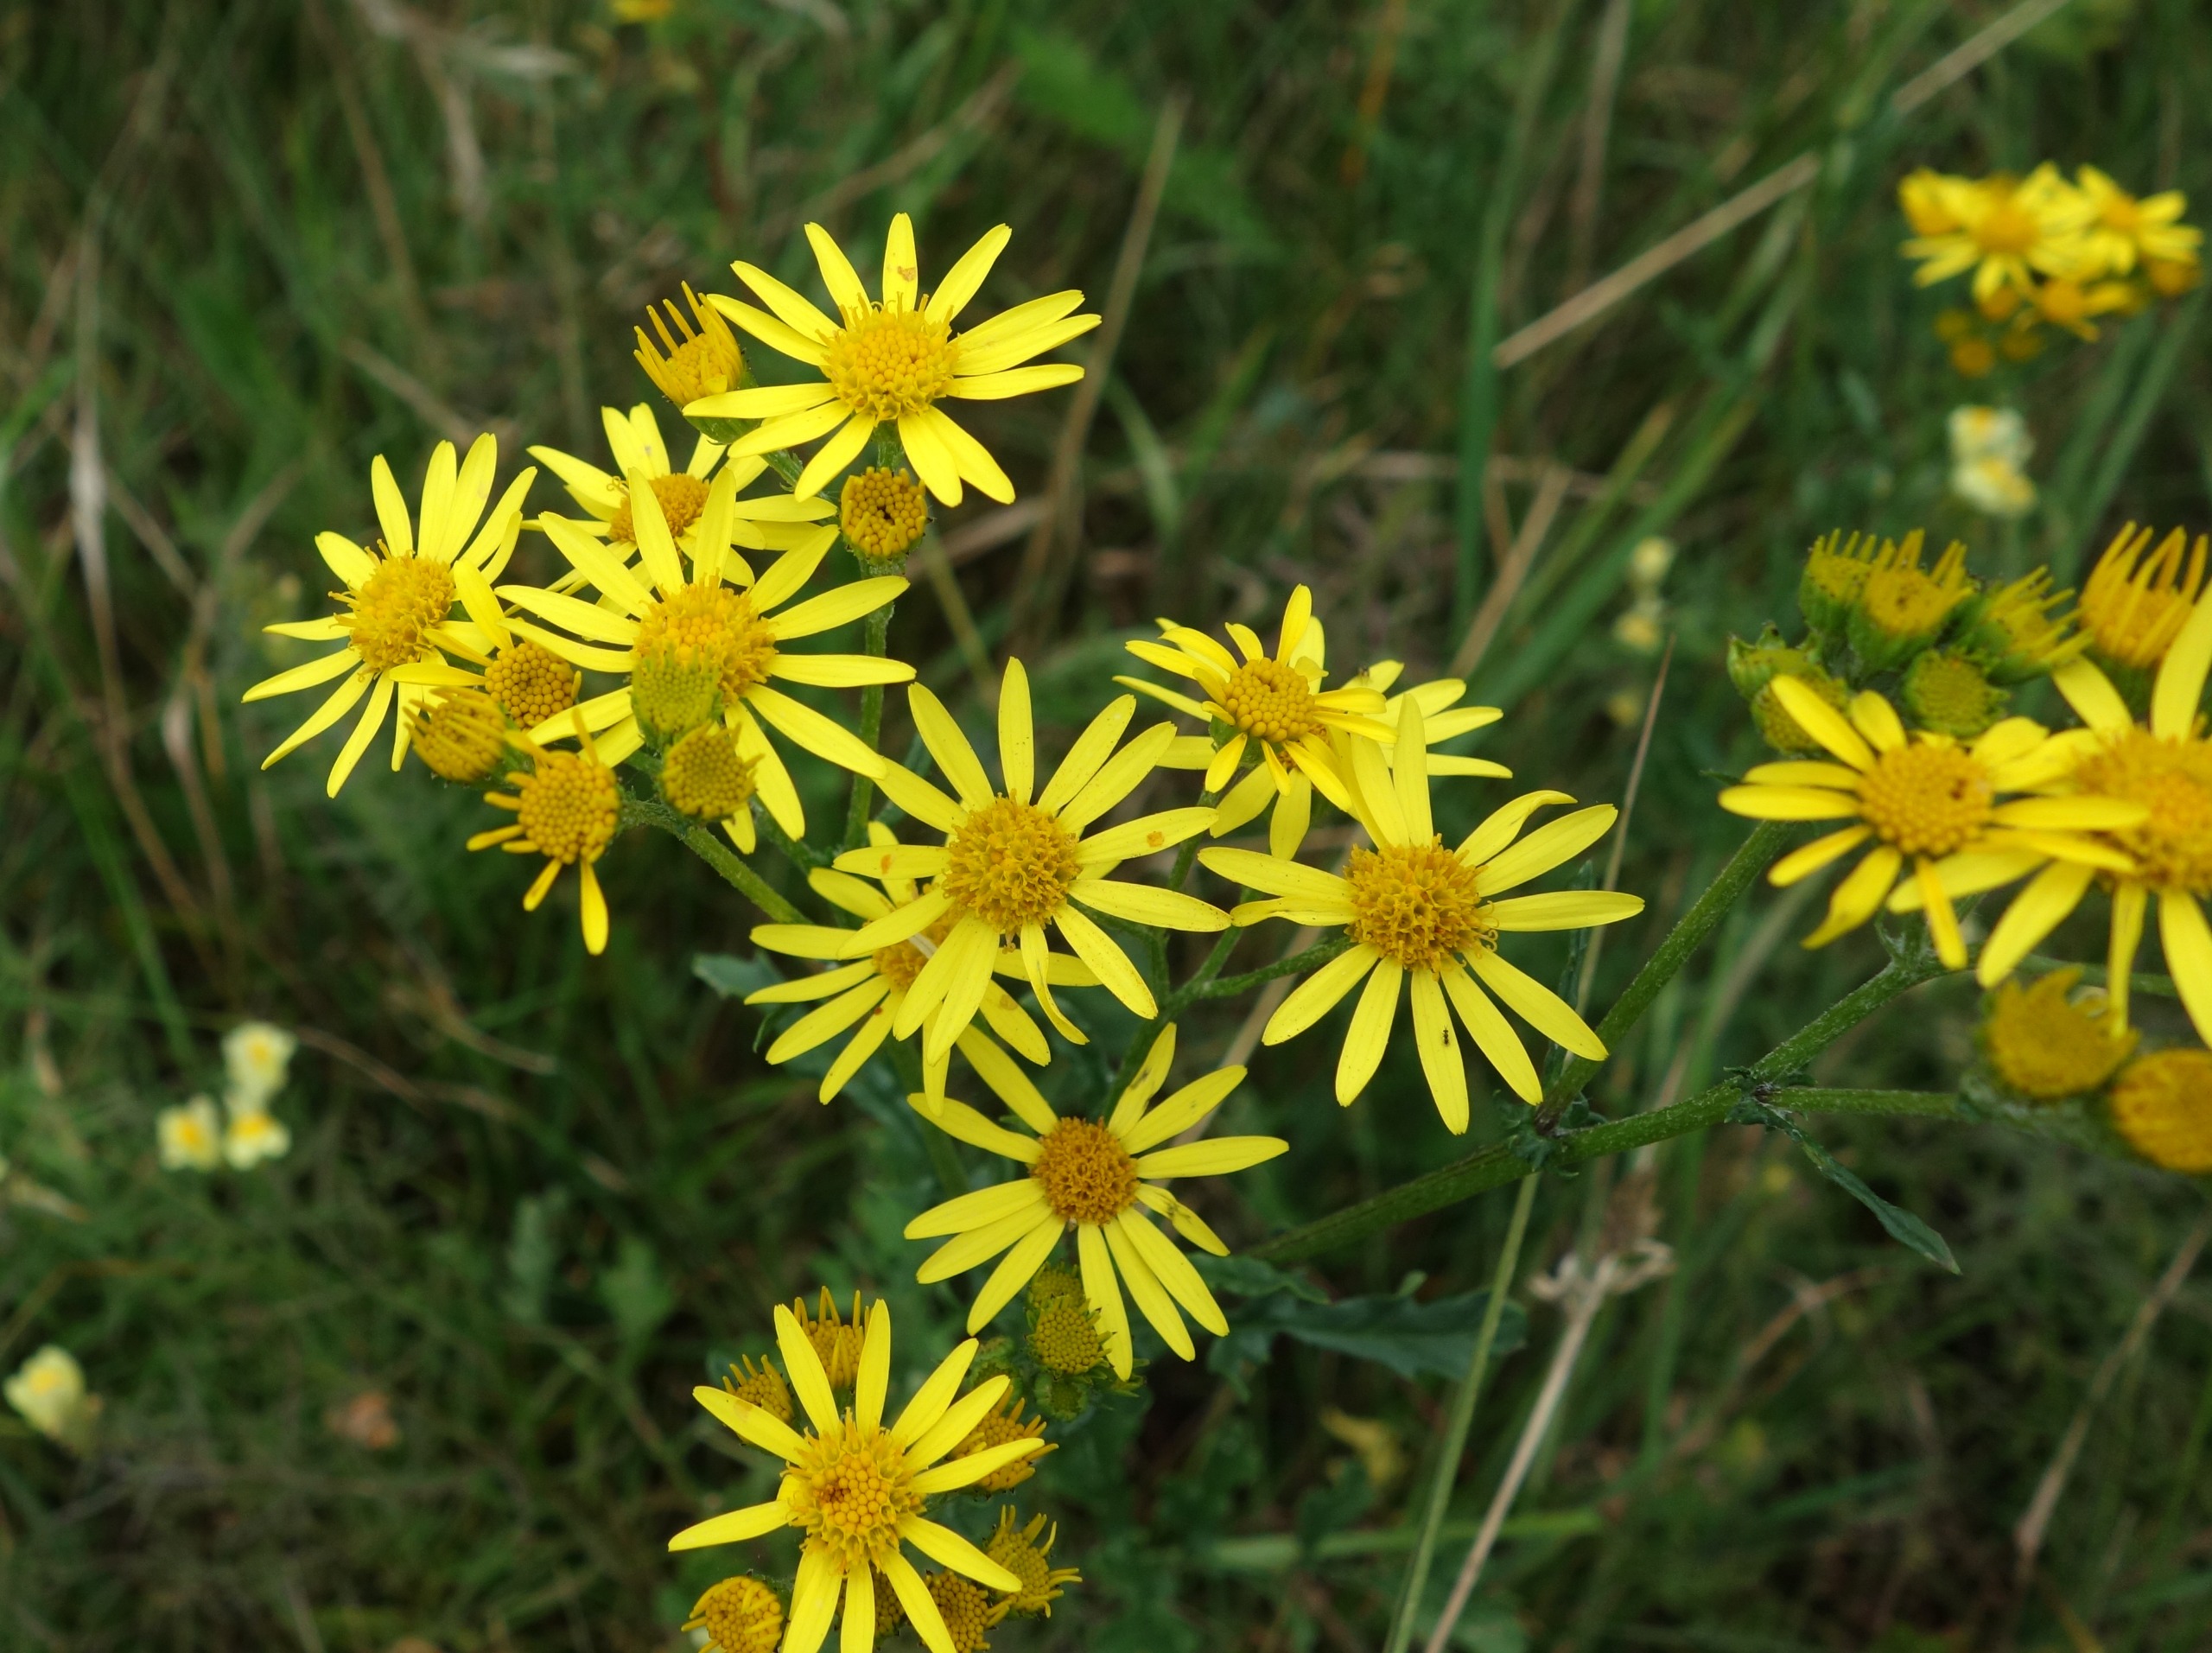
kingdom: Plantae
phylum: Tracheophyta
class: Magnoliopsida
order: Asterales
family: Asteraceae
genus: Jacobaea
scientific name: Jacobaea vulgaris
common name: Eng-brandbæger
